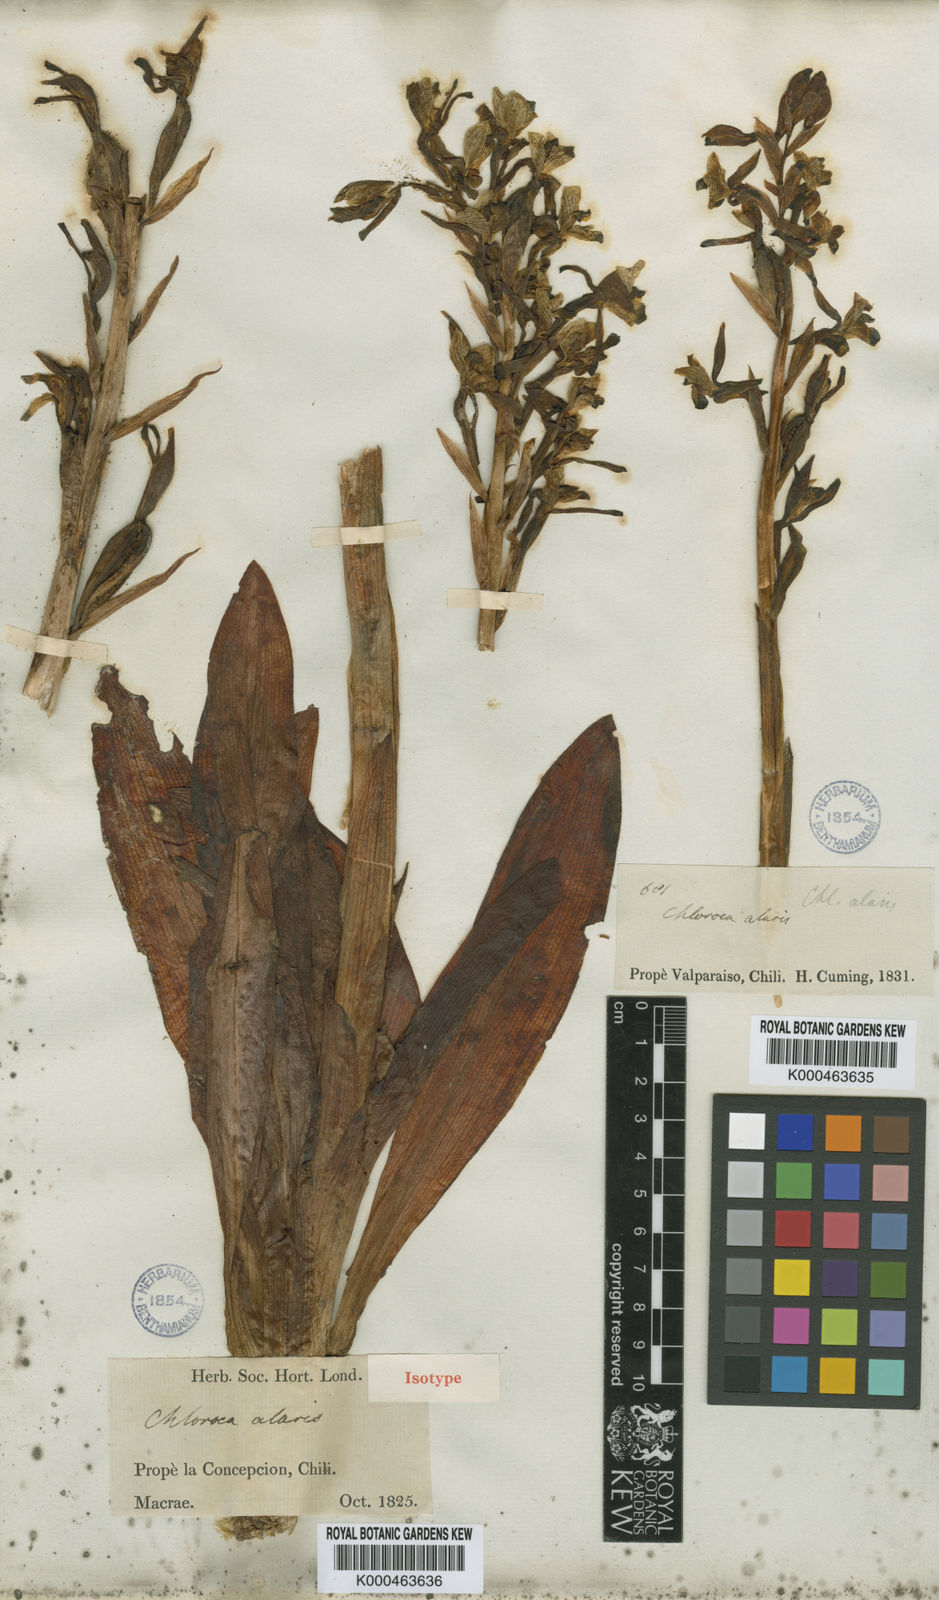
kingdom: Plantae
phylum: Tracheophyta
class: Liliopsida
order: Asparagales
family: Orchidaceae
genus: Chloraea
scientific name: Chloraea galeata
